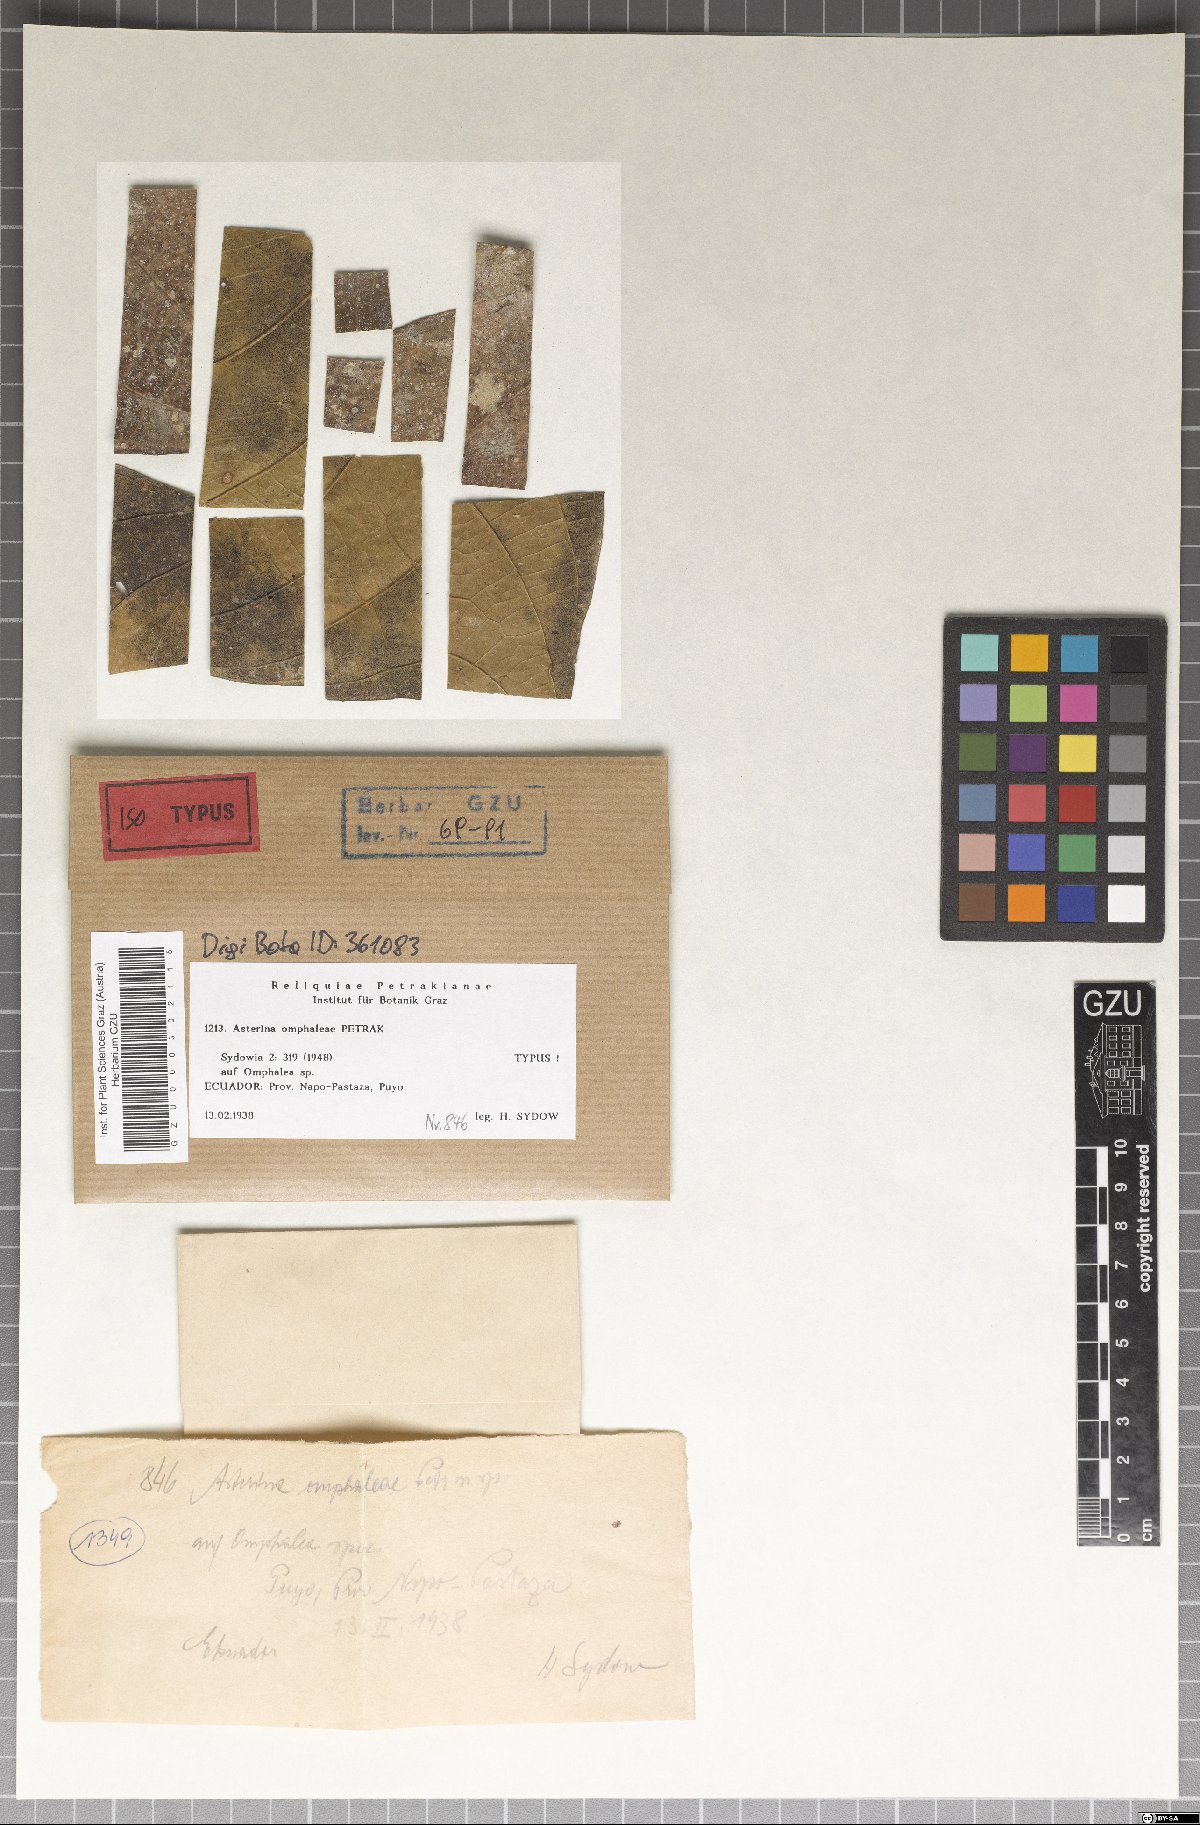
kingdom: Fungi
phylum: Ascomycota
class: Dothideomycetes
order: Asterinales
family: Asterinaceae
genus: Asterina
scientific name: Asterina omphaleae
